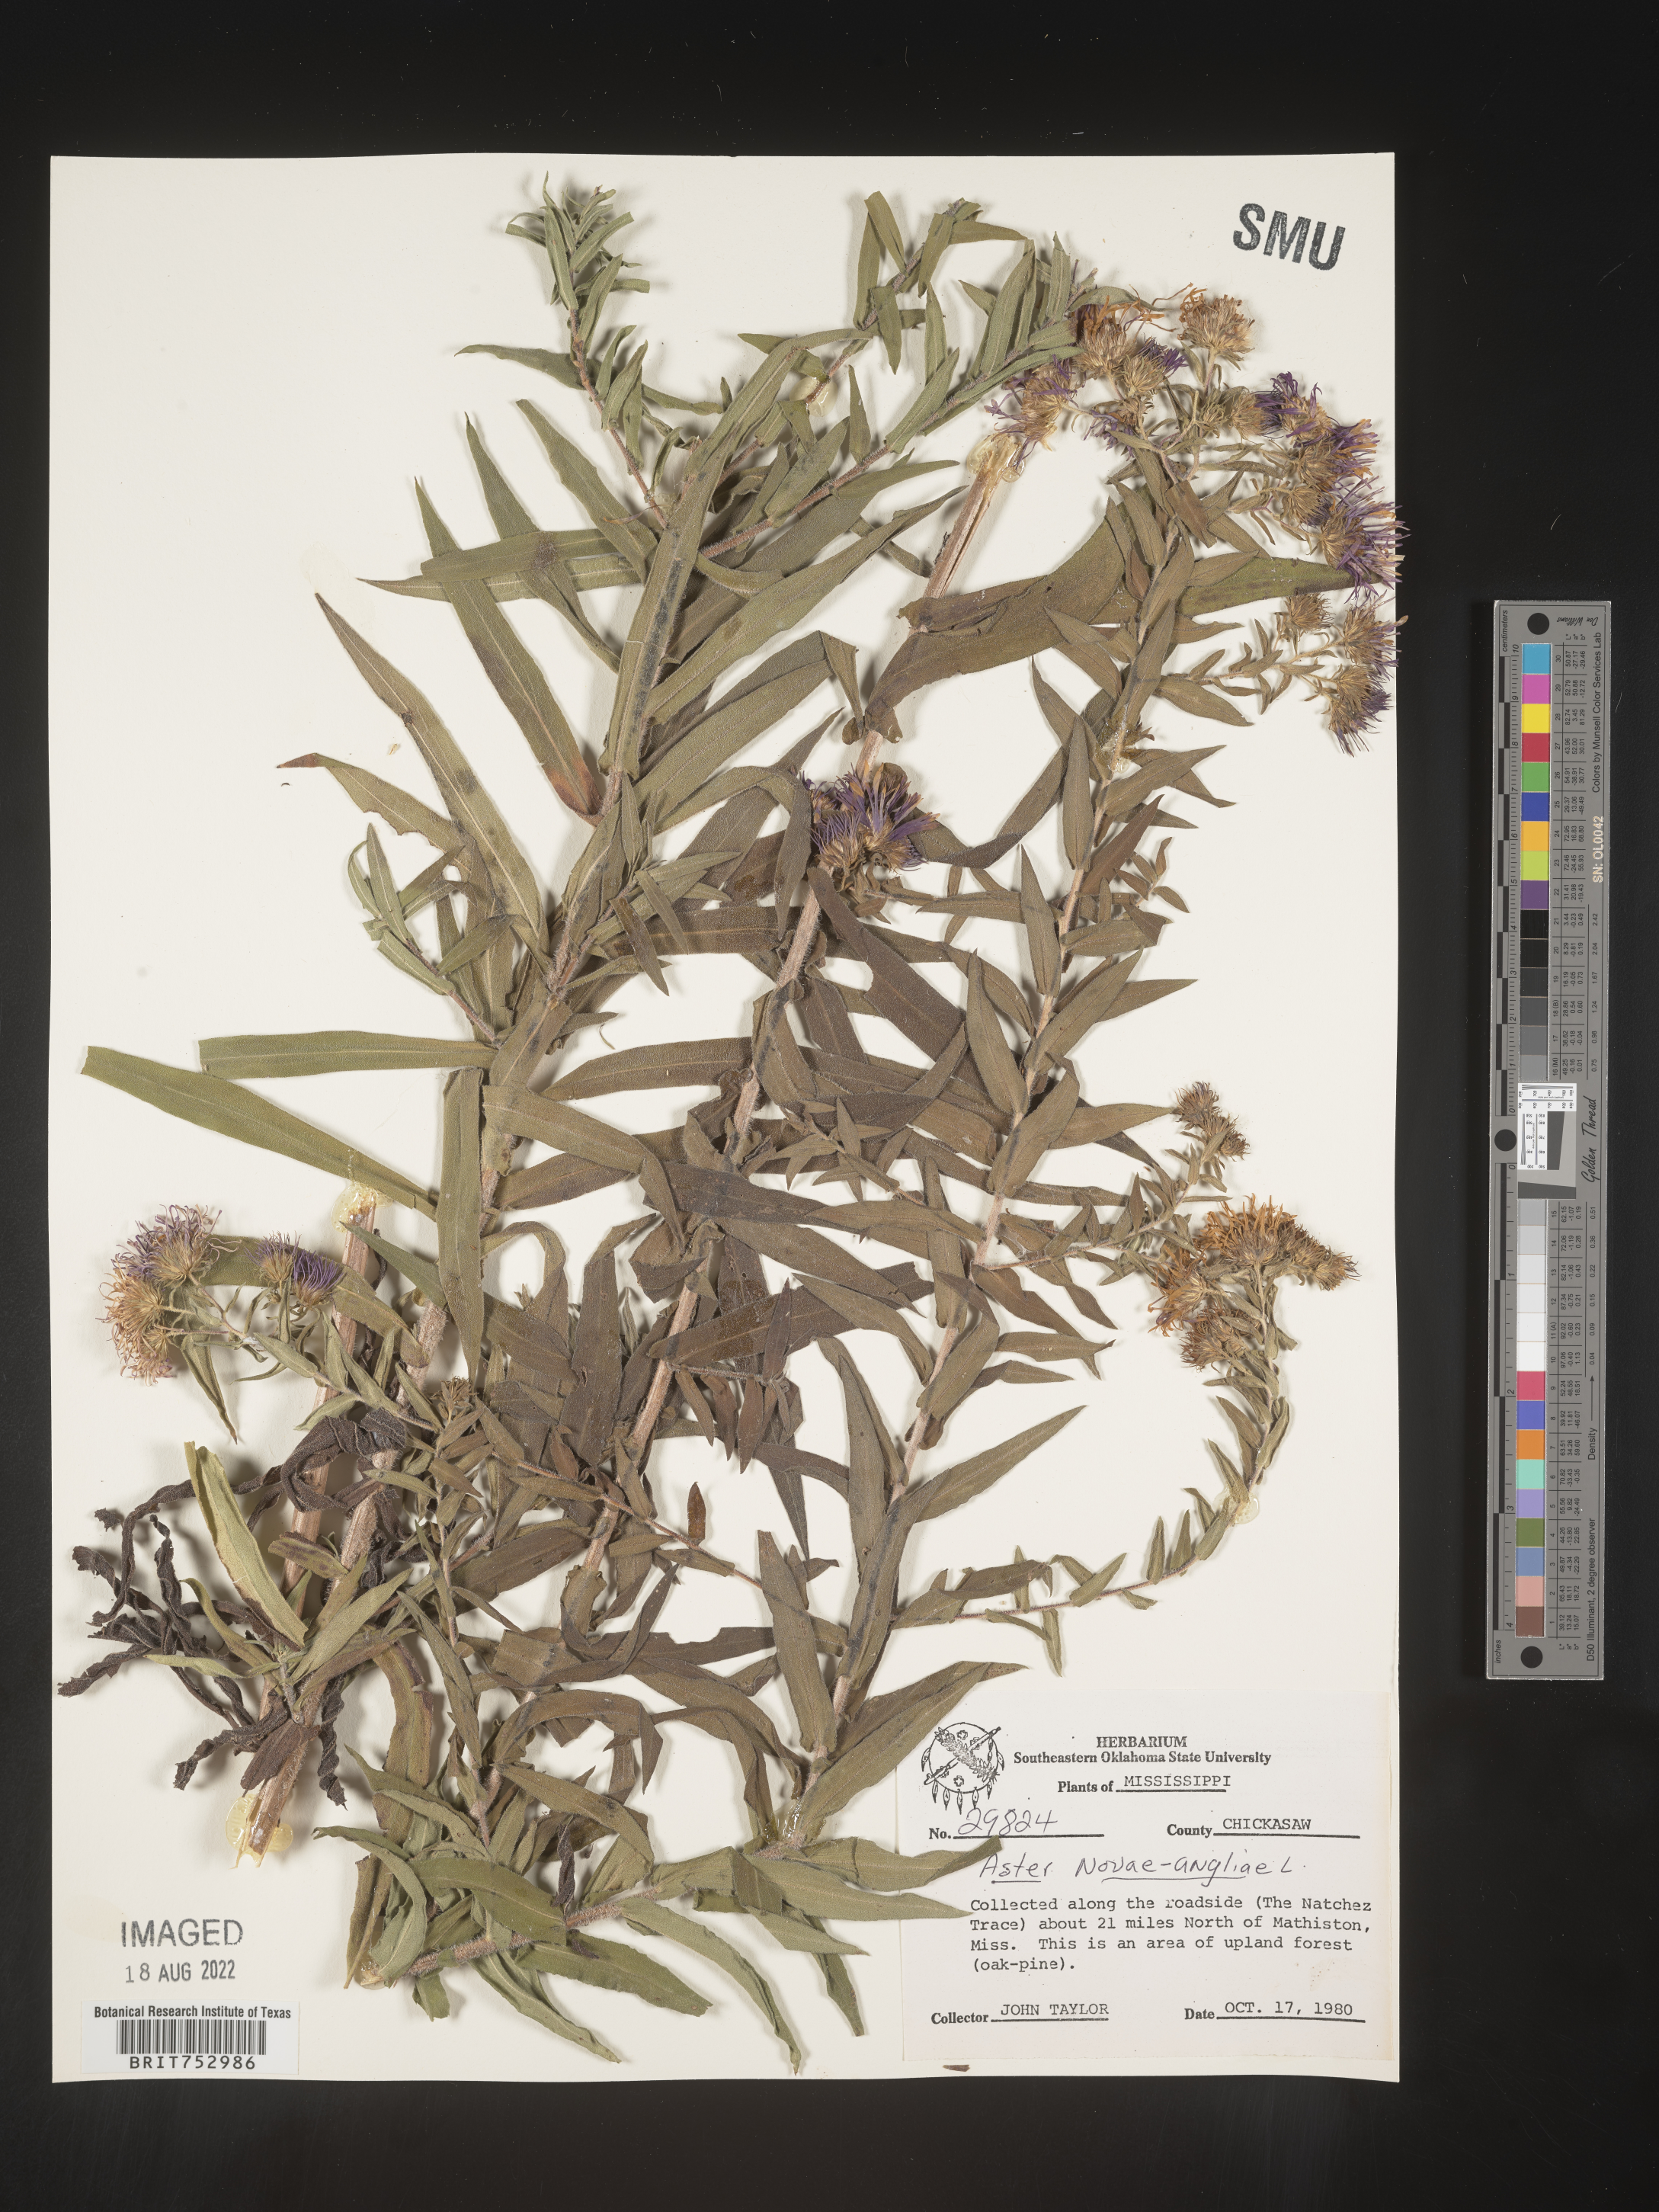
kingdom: Plantae
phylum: Tracheophyta
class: Magnoliopsida
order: Asterales
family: Asteraceae
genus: Symphyotrichum
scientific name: Symphyotrichum novae-angliae
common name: Michaelmas daisy
